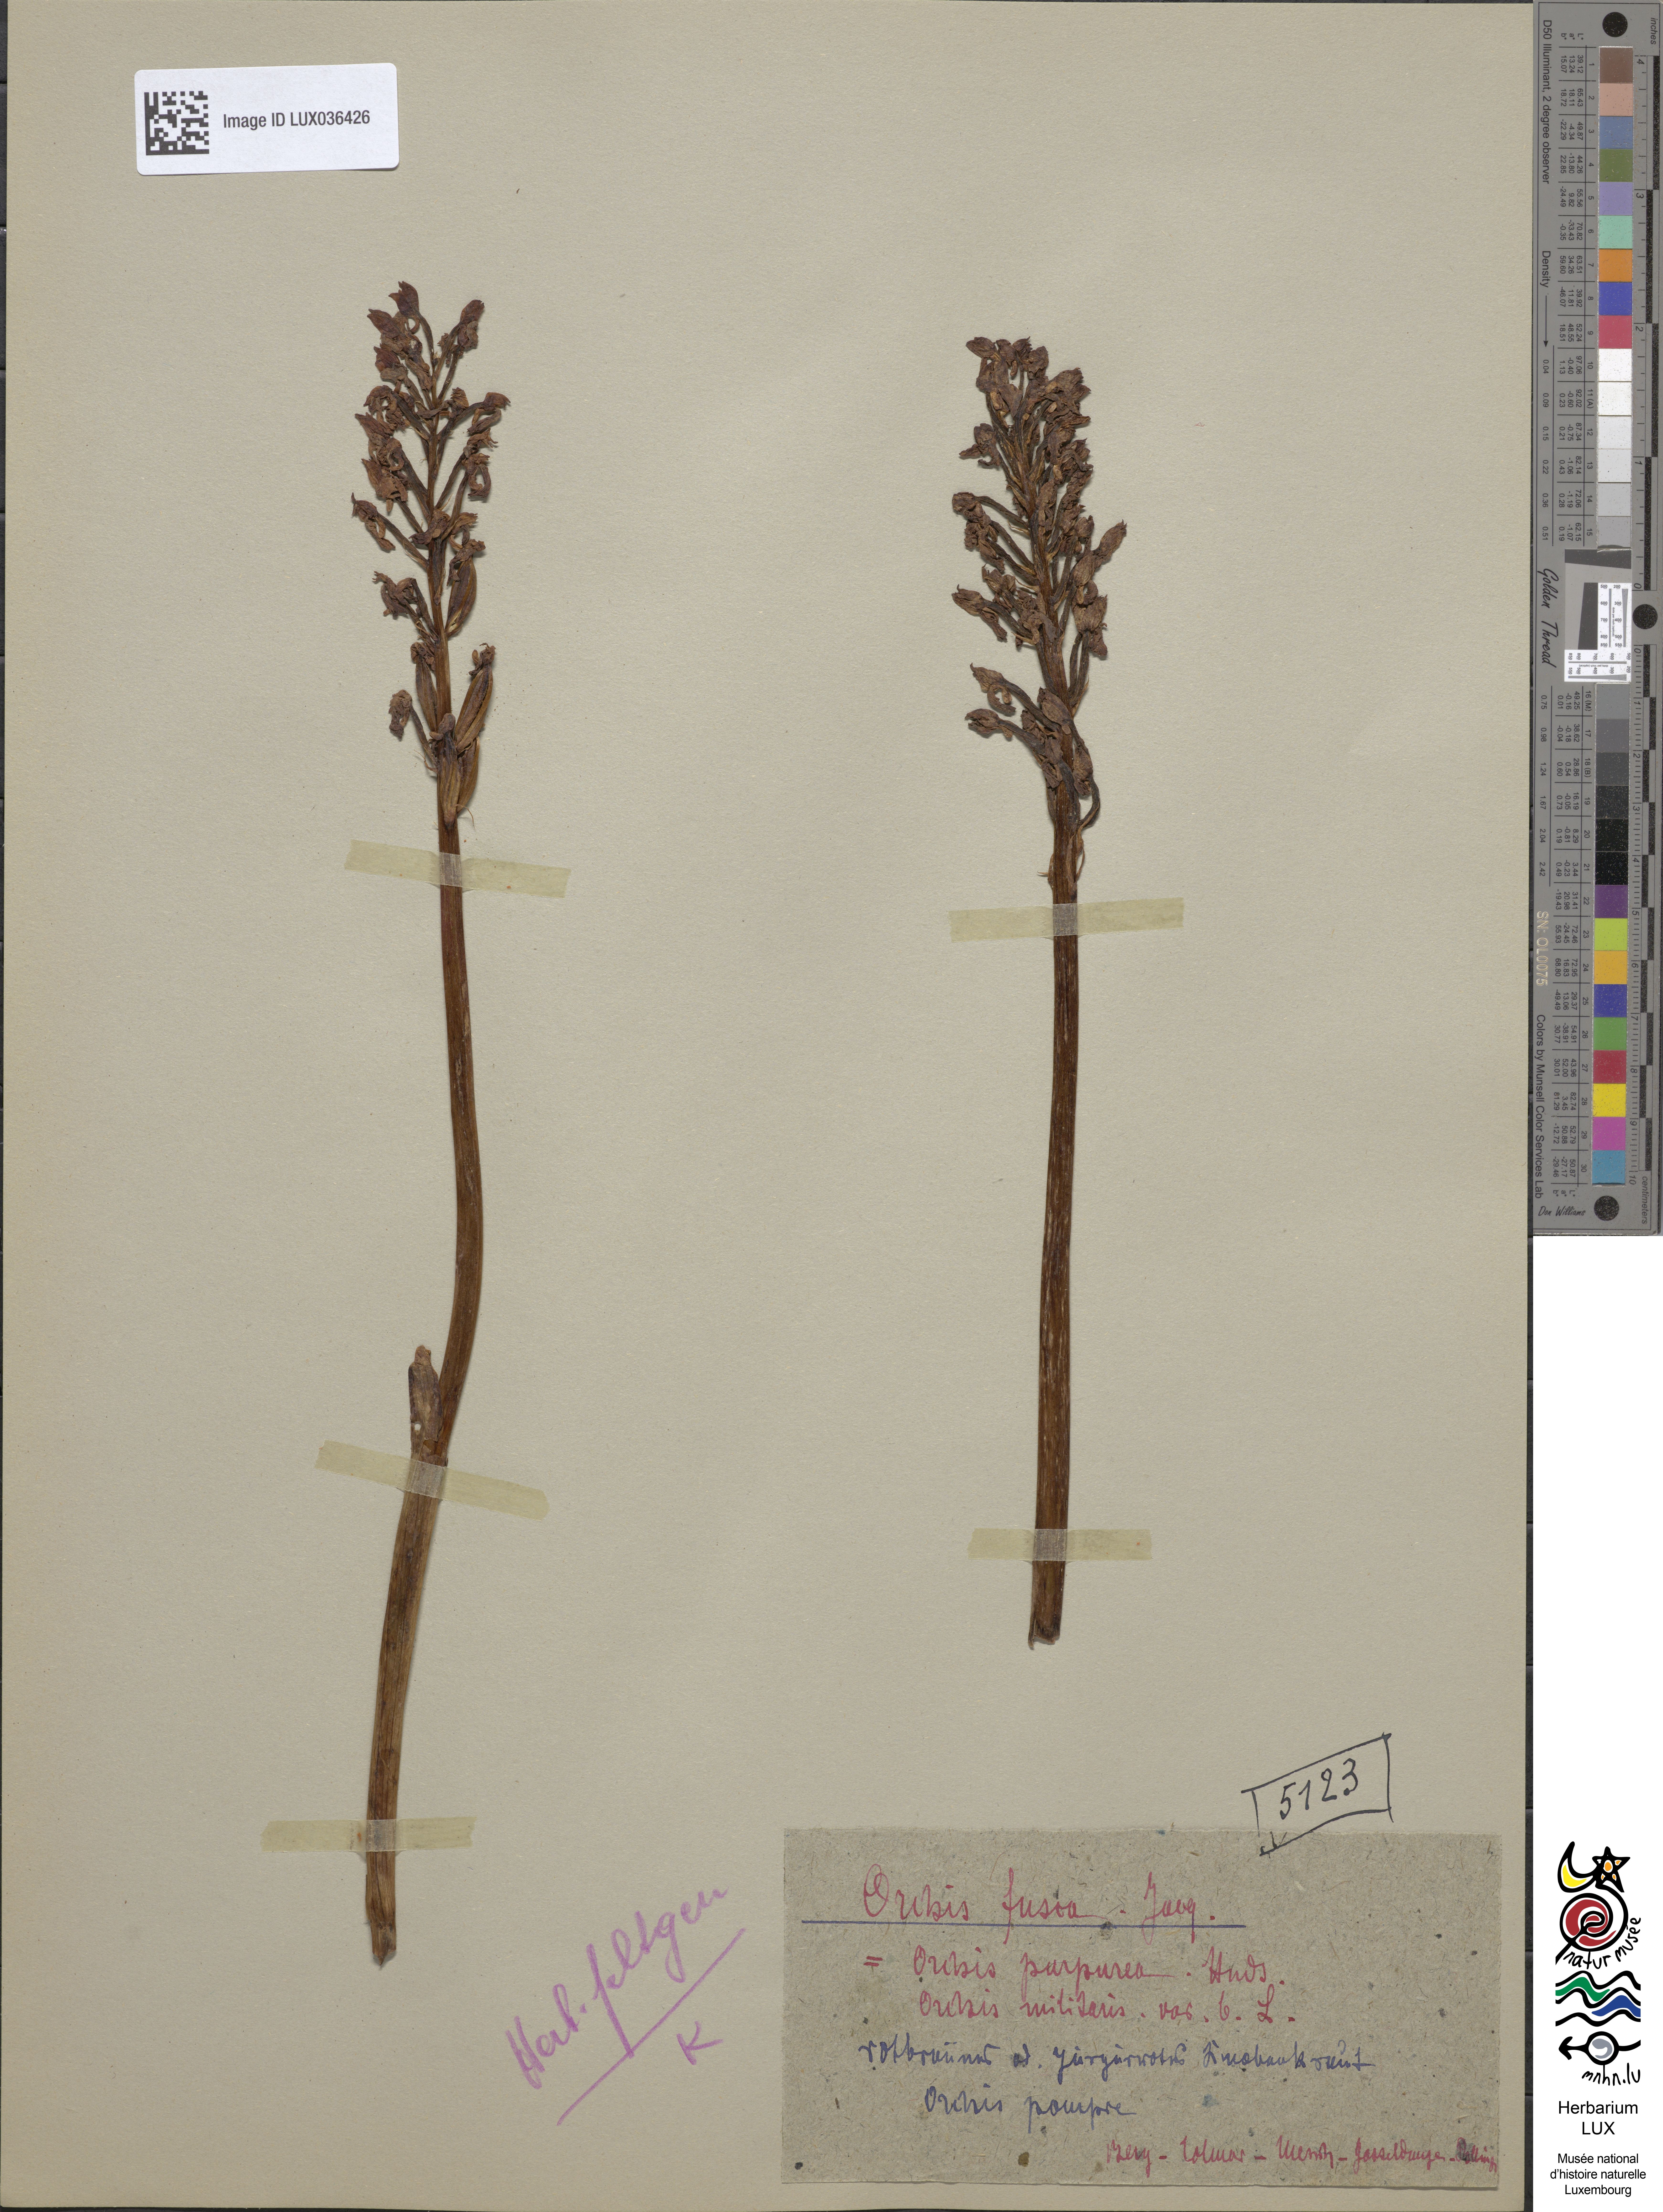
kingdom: Plantae
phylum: Tracheophyta
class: Liliopsida
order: Asparagales
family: Orchidaceae
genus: Orchis
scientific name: Orchis purpurea
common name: Lady orchid
